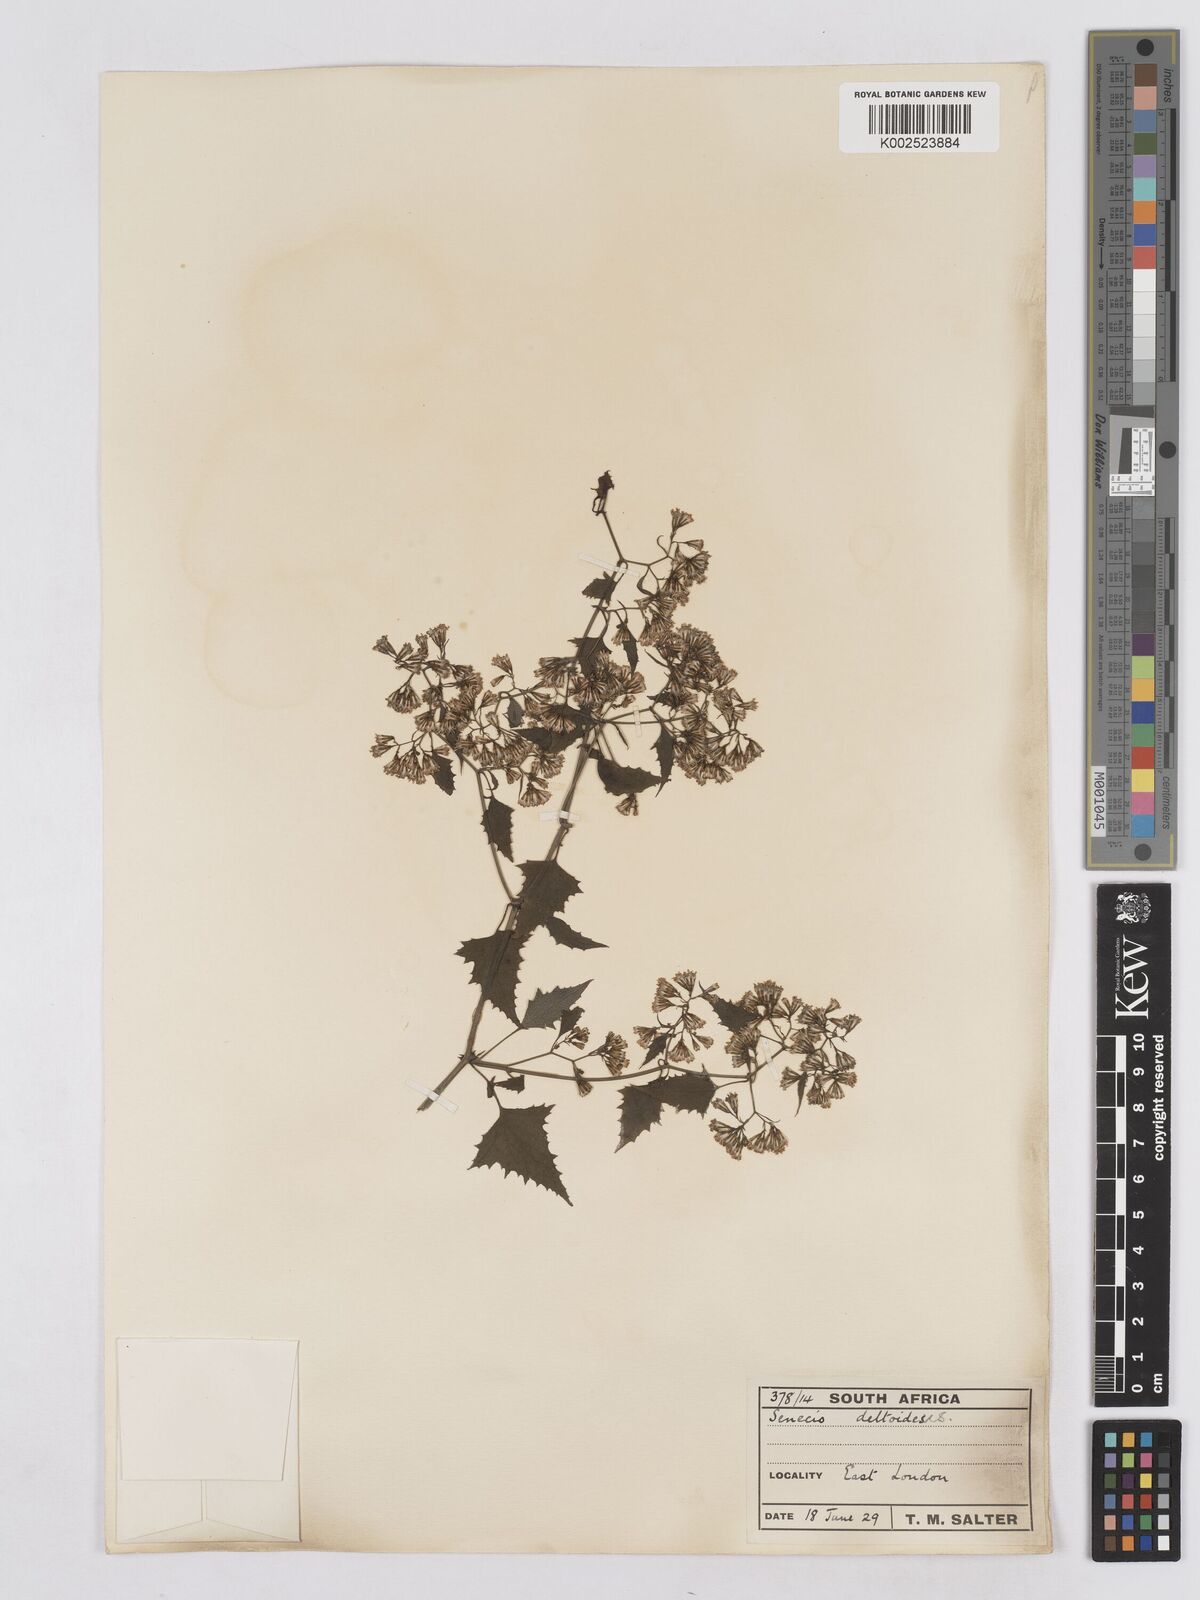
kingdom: Plantae
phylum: Tracheophyta
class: Magnoliopsida
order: Asterales
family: Asteraceae
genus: Senecio
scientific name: Senecio deltoideus
